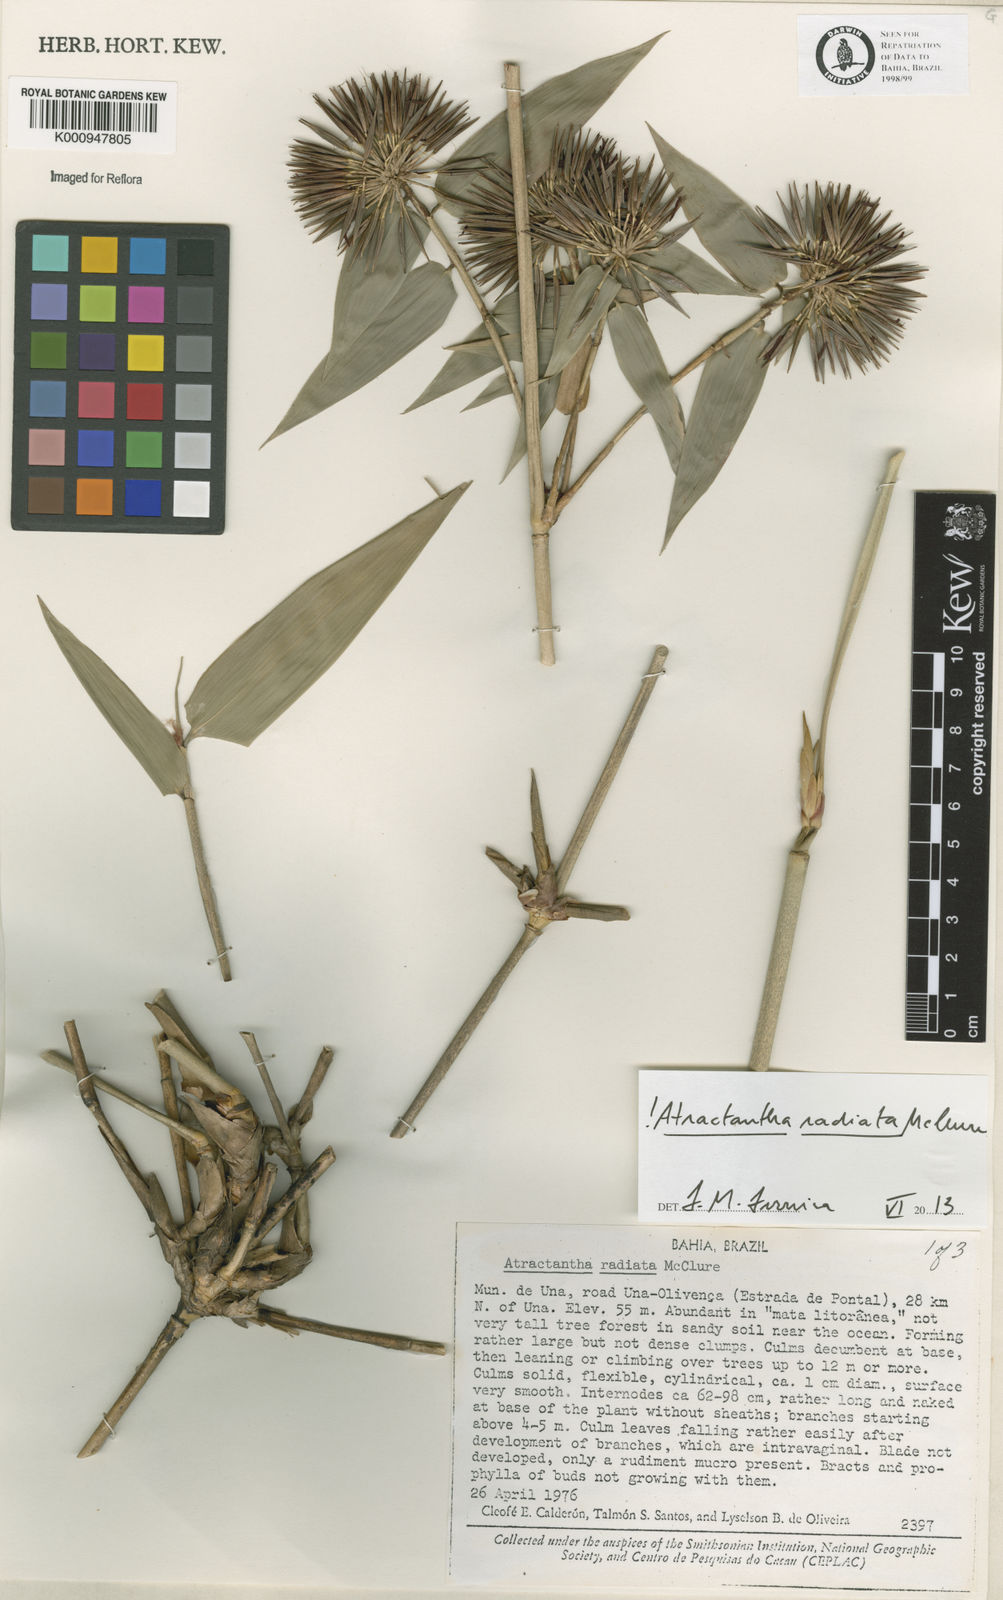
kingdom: Plantae
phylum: Tracheophyta
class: Liliopsida
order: Poales
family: Poaceae
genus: Atractantha
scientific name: Atractantha radiata
